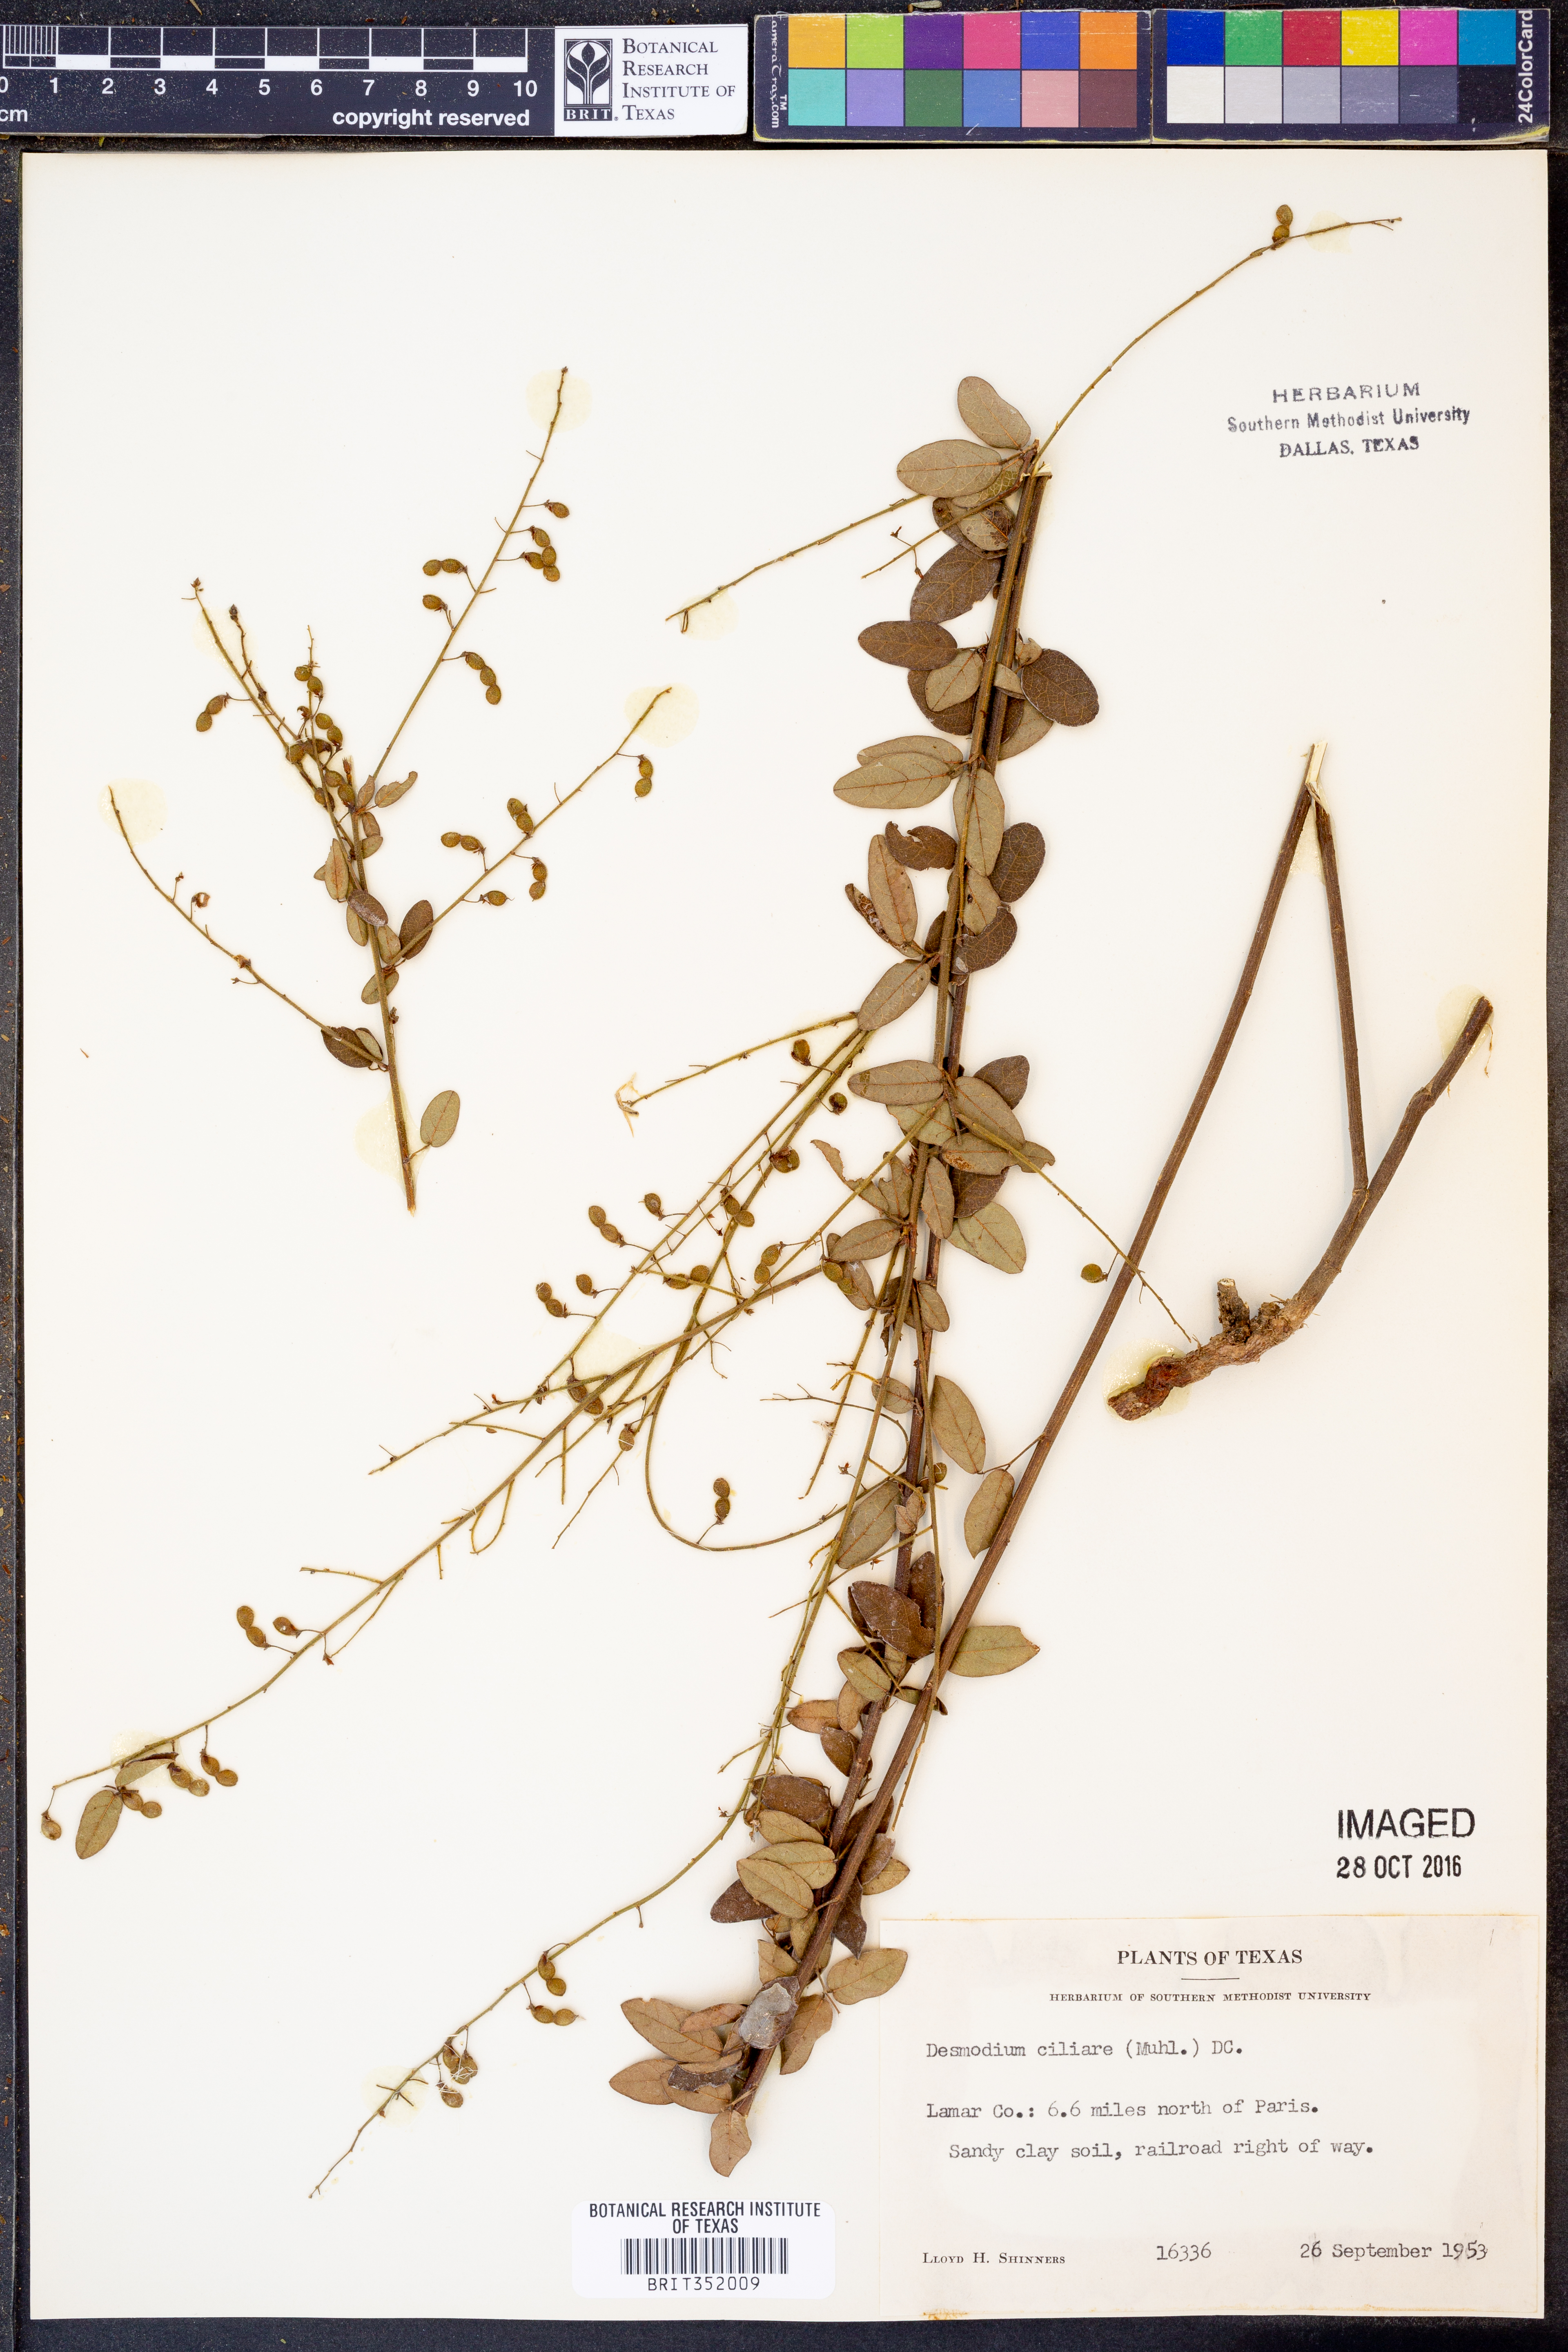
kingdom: Plantae
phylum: Tracheophyta
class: Magnoliopsida
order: Fabales
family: Fabaceae
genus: Desmodium
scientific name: Desmodium ciliare
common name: Hairy small-leaf ticktrefoil
